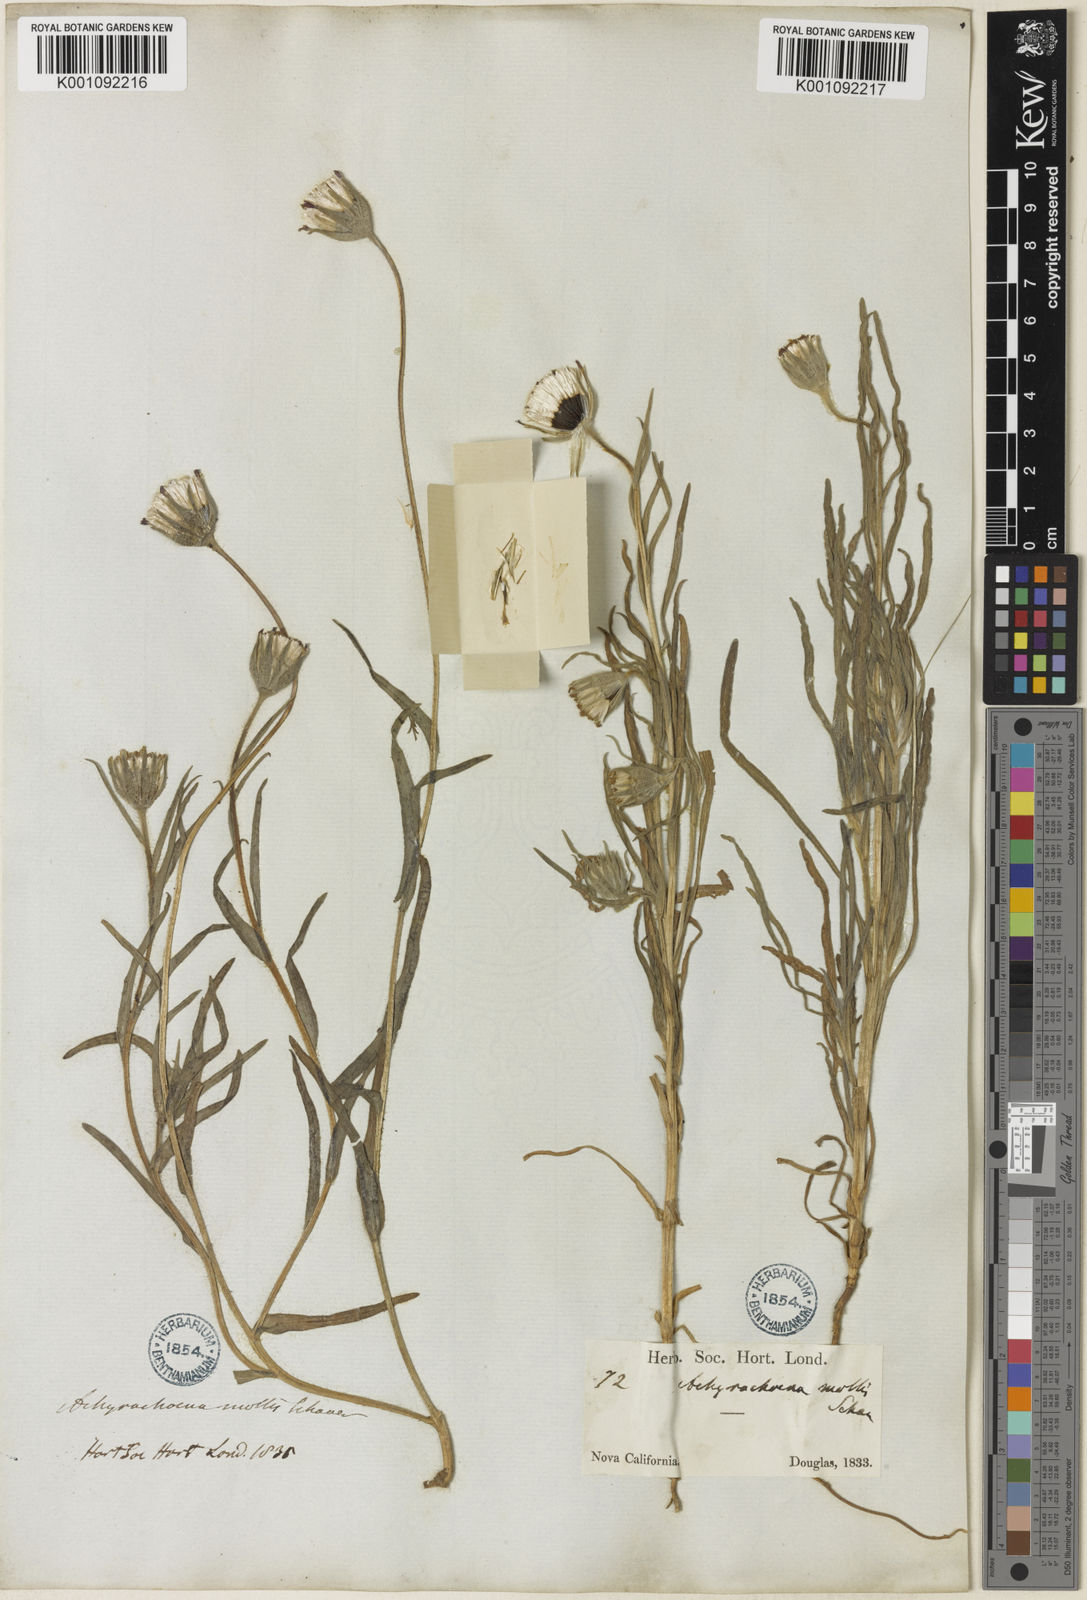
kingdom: Plantae
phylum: Tracheophyta
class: Magnoliopsida
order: Asterales
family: Asteraceae
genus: Achyrachaena
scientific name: Achyrachaena mollis
